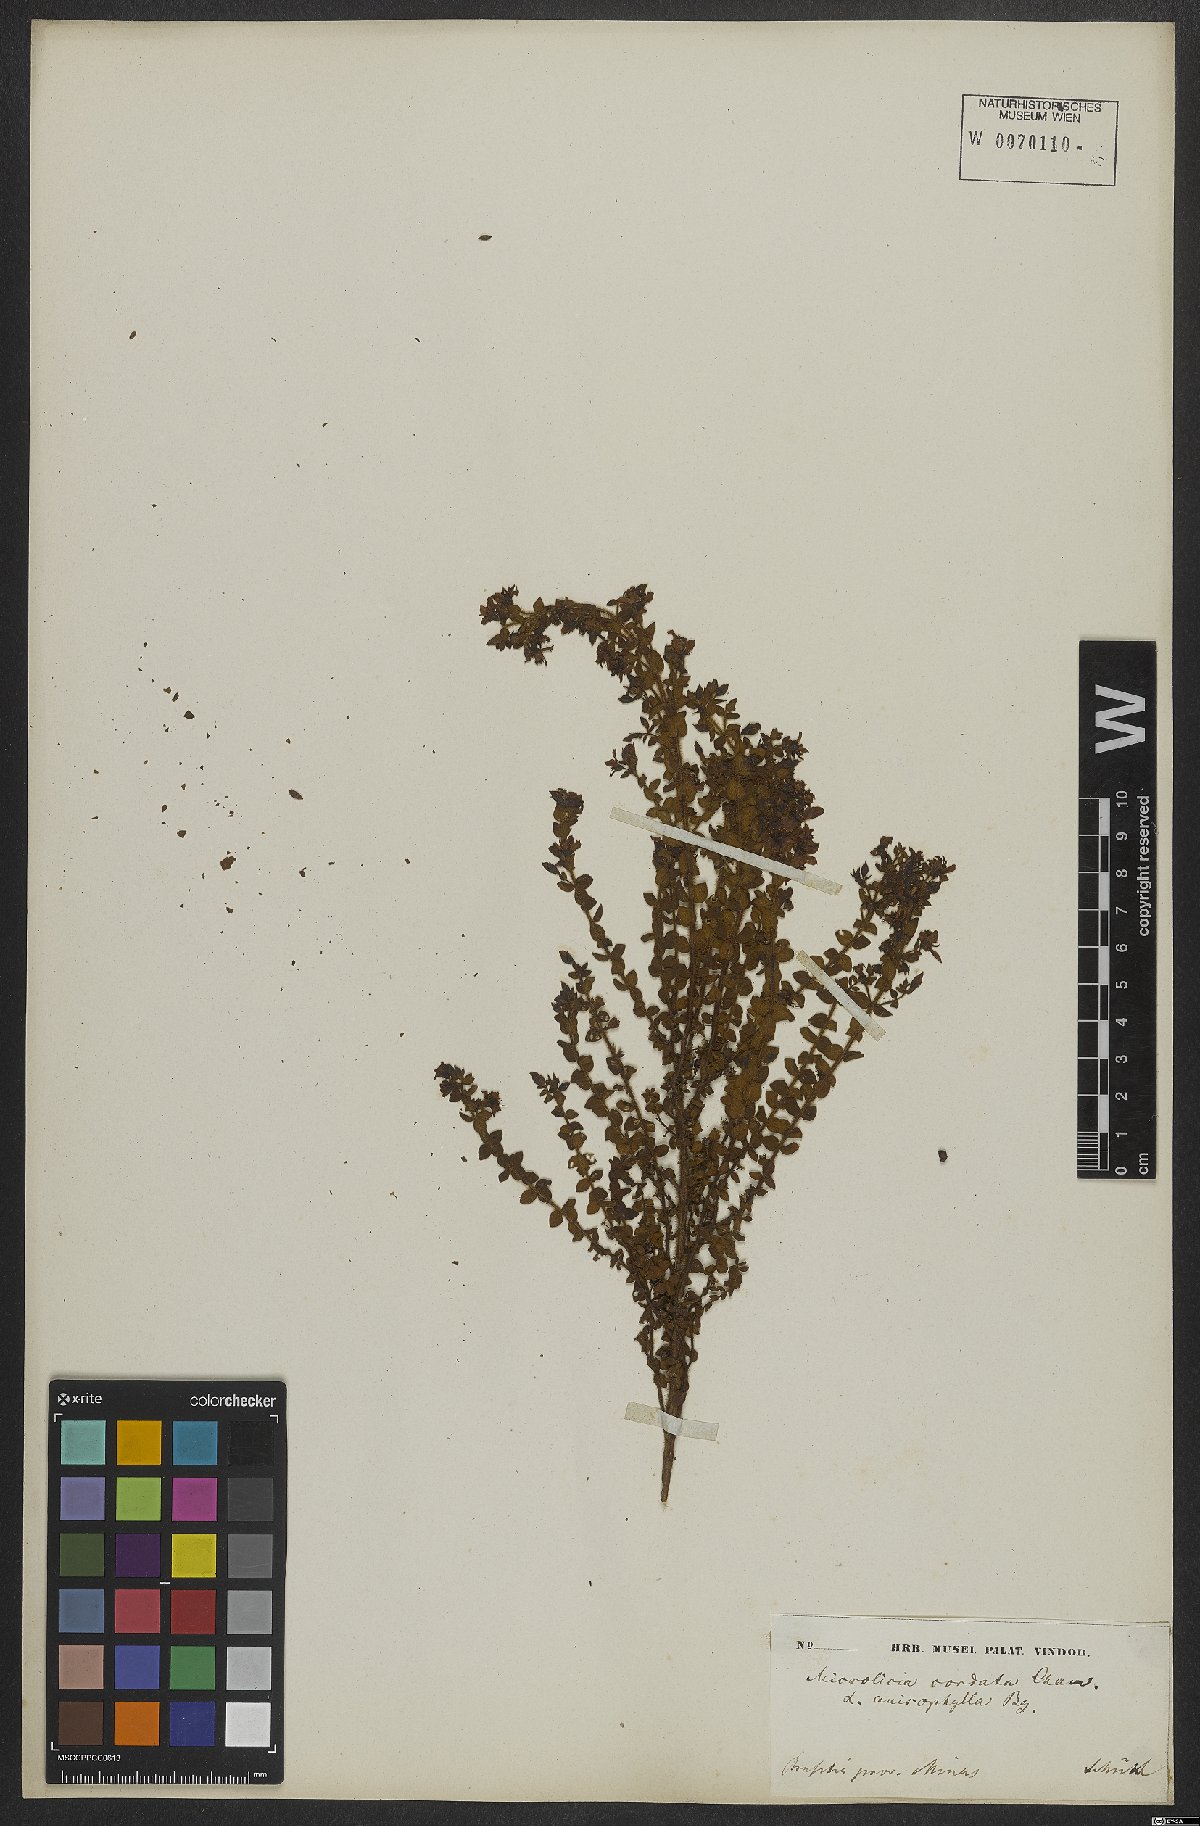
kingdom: Plantae
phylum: Tracheophyta
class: Magnoliopsida
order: Myrtales
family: Melastomataceae
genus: Microlicia
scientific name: Microlicia cordata
